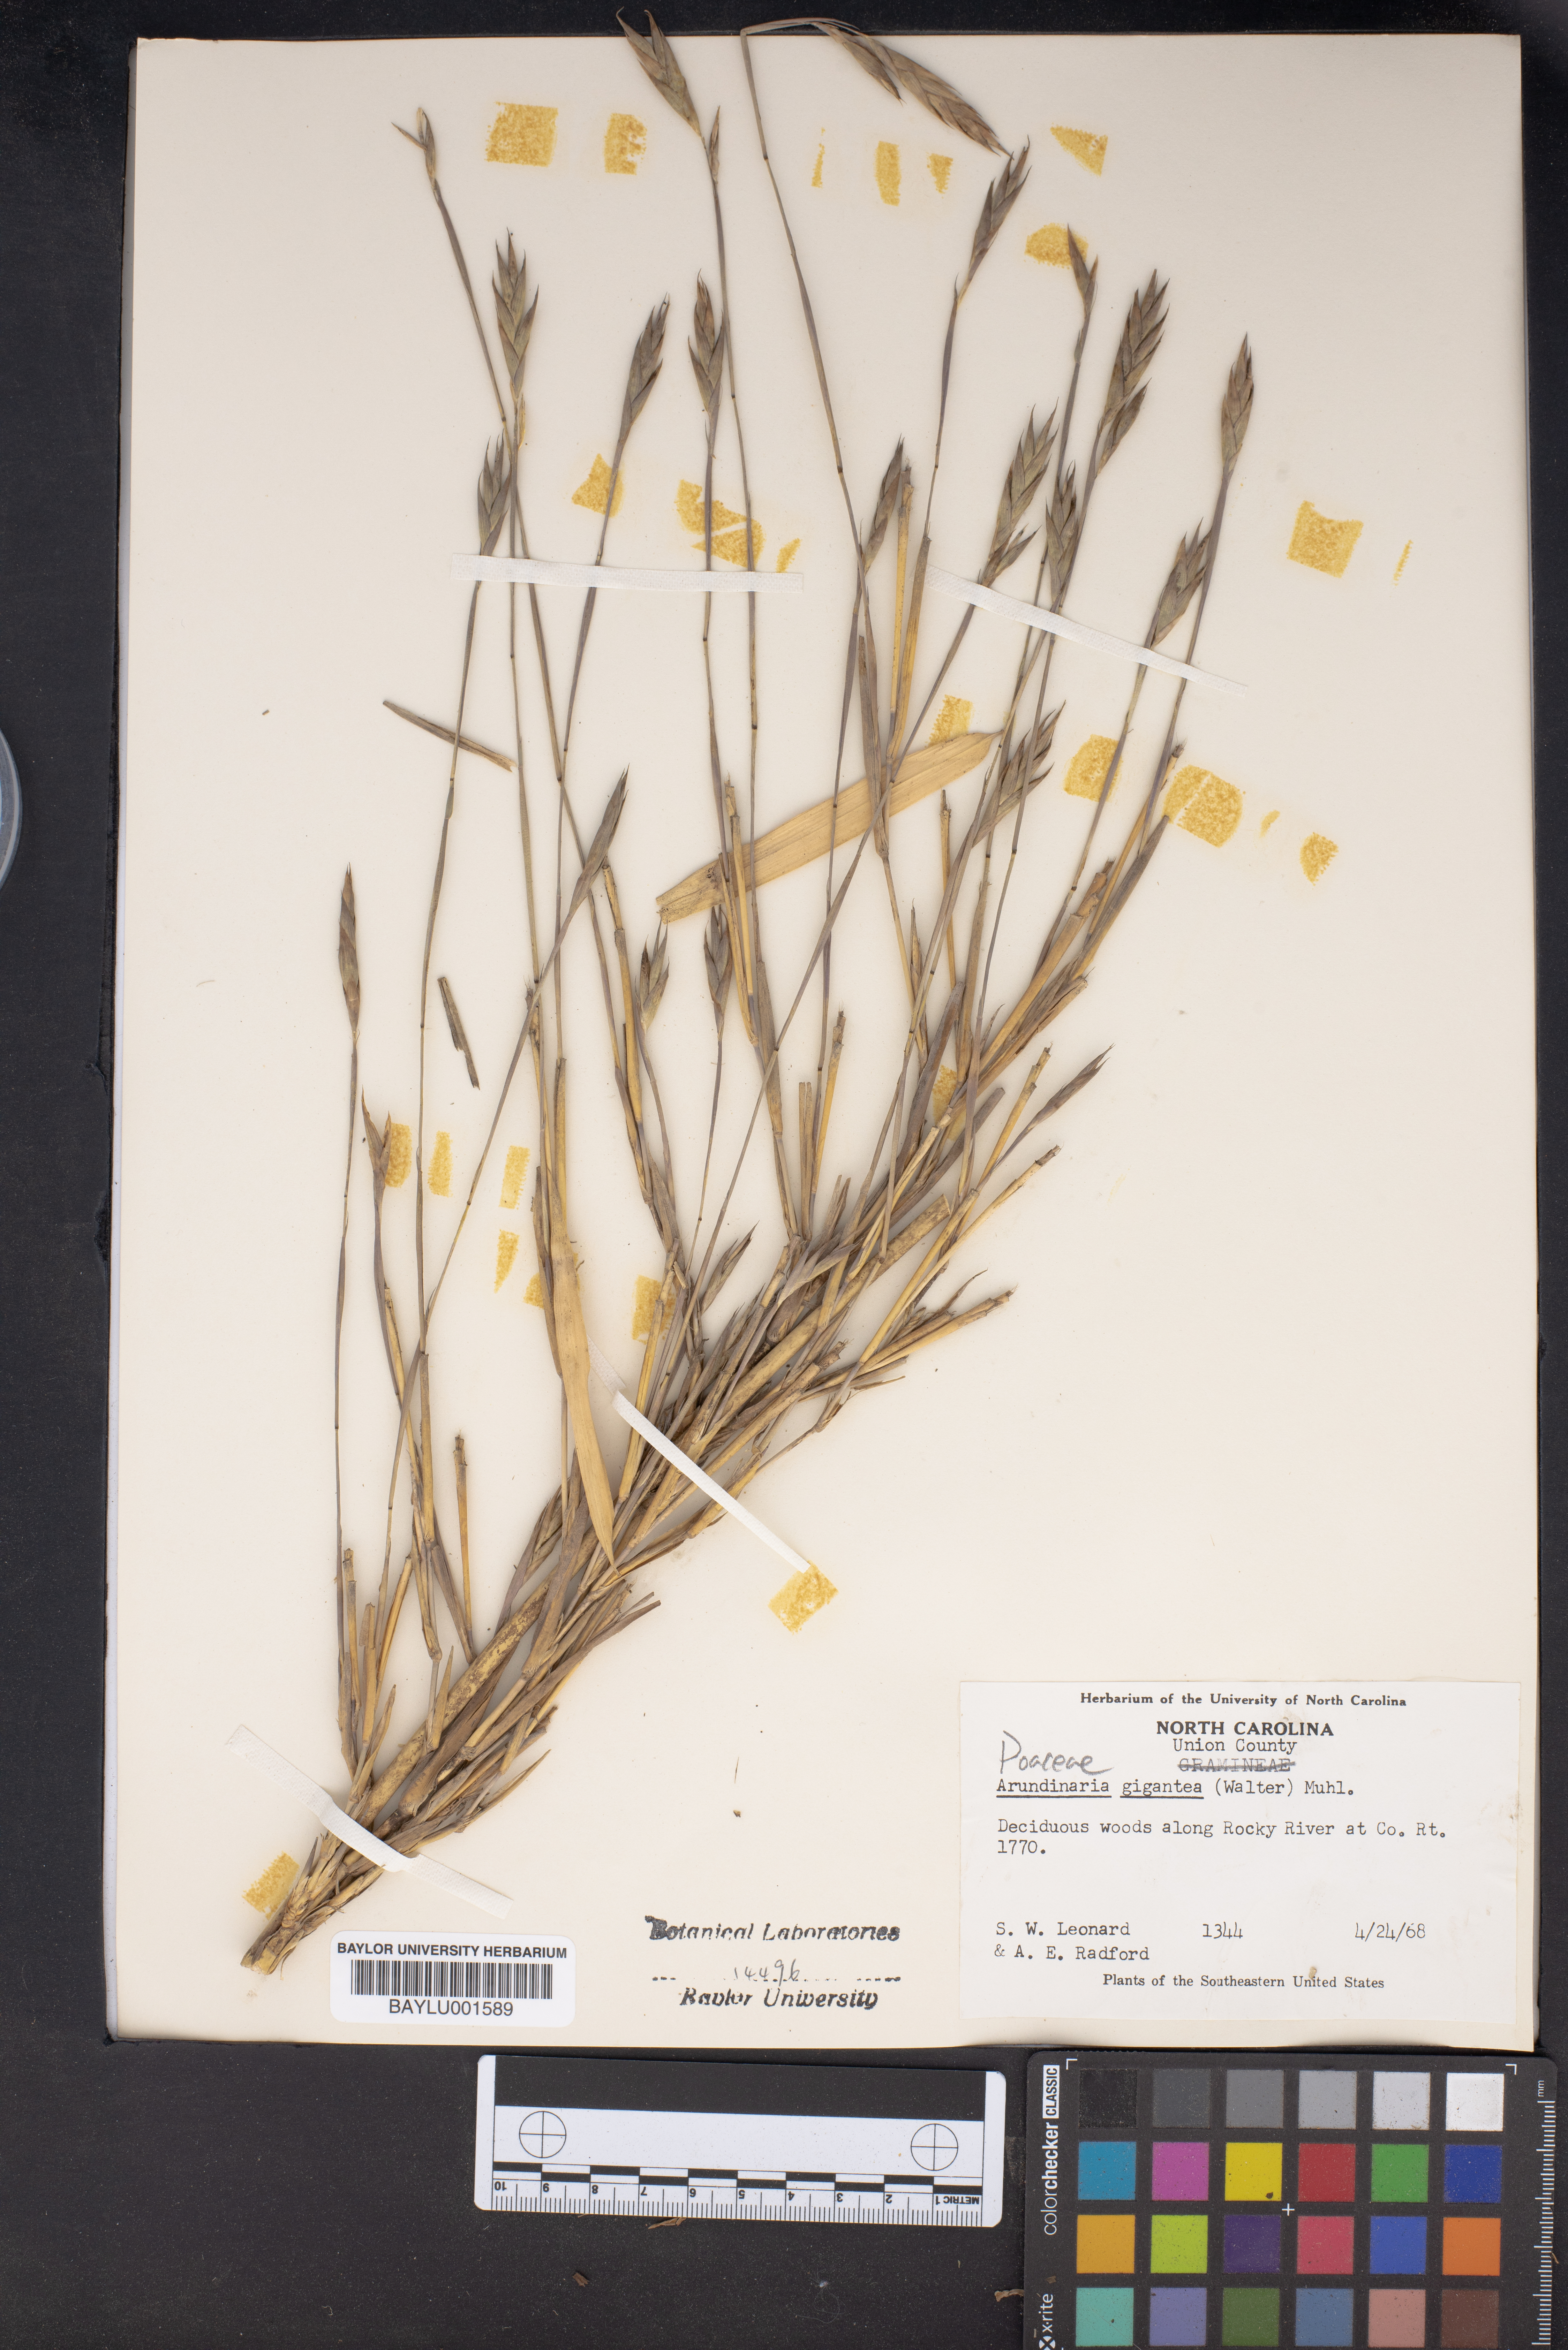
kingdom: Plantae
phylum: Tracheophyta
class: Liliopsida
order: Poales
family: Poaceae
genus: Arundinaria
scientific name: Arundinaria gigantea
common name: Giant cane
